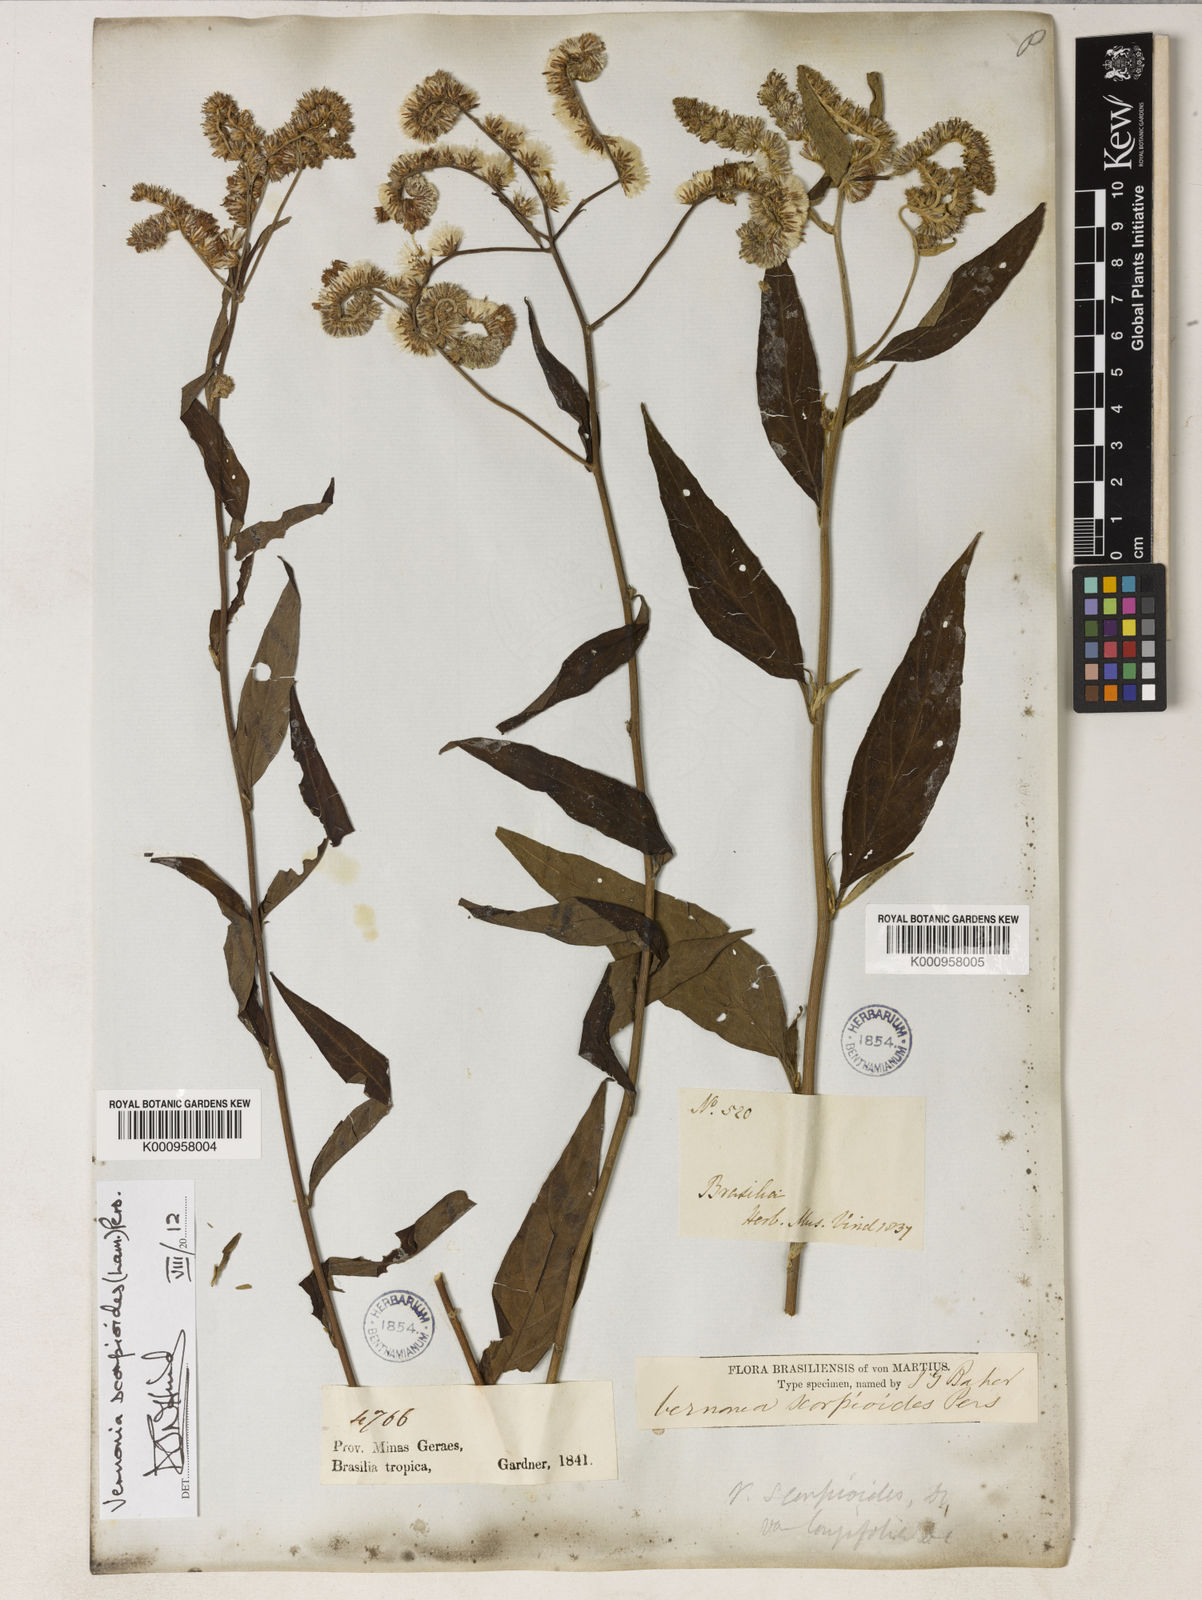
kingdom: Plantae
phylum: Tracheophyta
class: Magnoliopsida
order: Asterales
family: Asteraceae
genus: Cyrtocymura
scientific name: Cyrtocymura scorpioides
